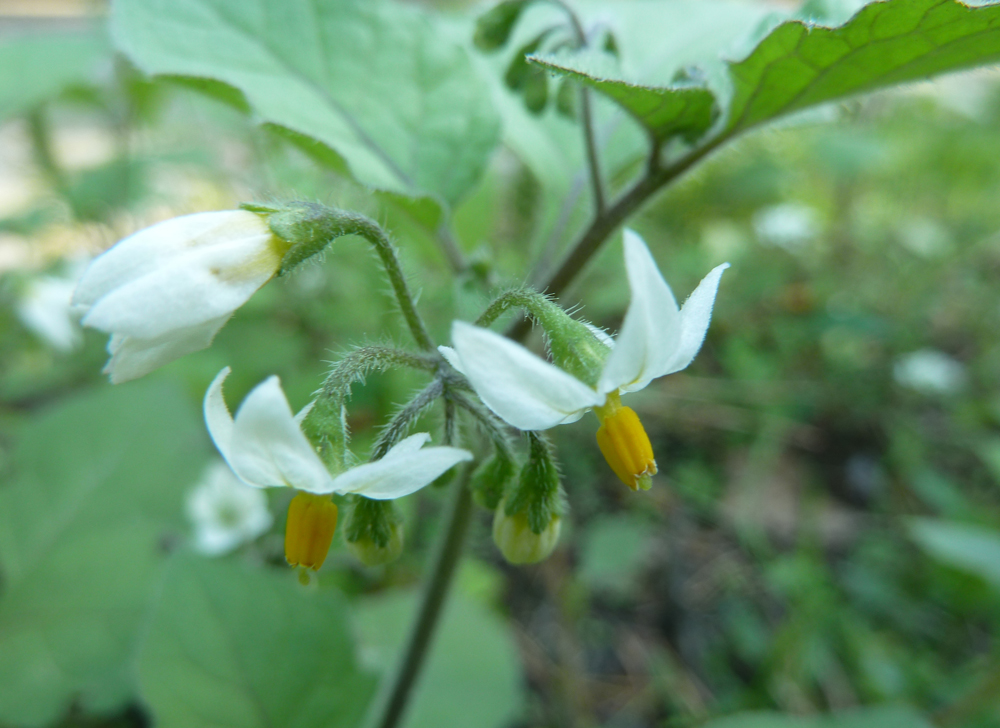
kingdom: Plantae
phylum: Tracheophyta
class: Magnoliopsida
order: Solanales
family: Solanaceae
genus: Solanum
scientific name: Solanum nigrum
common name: Black nightshade
